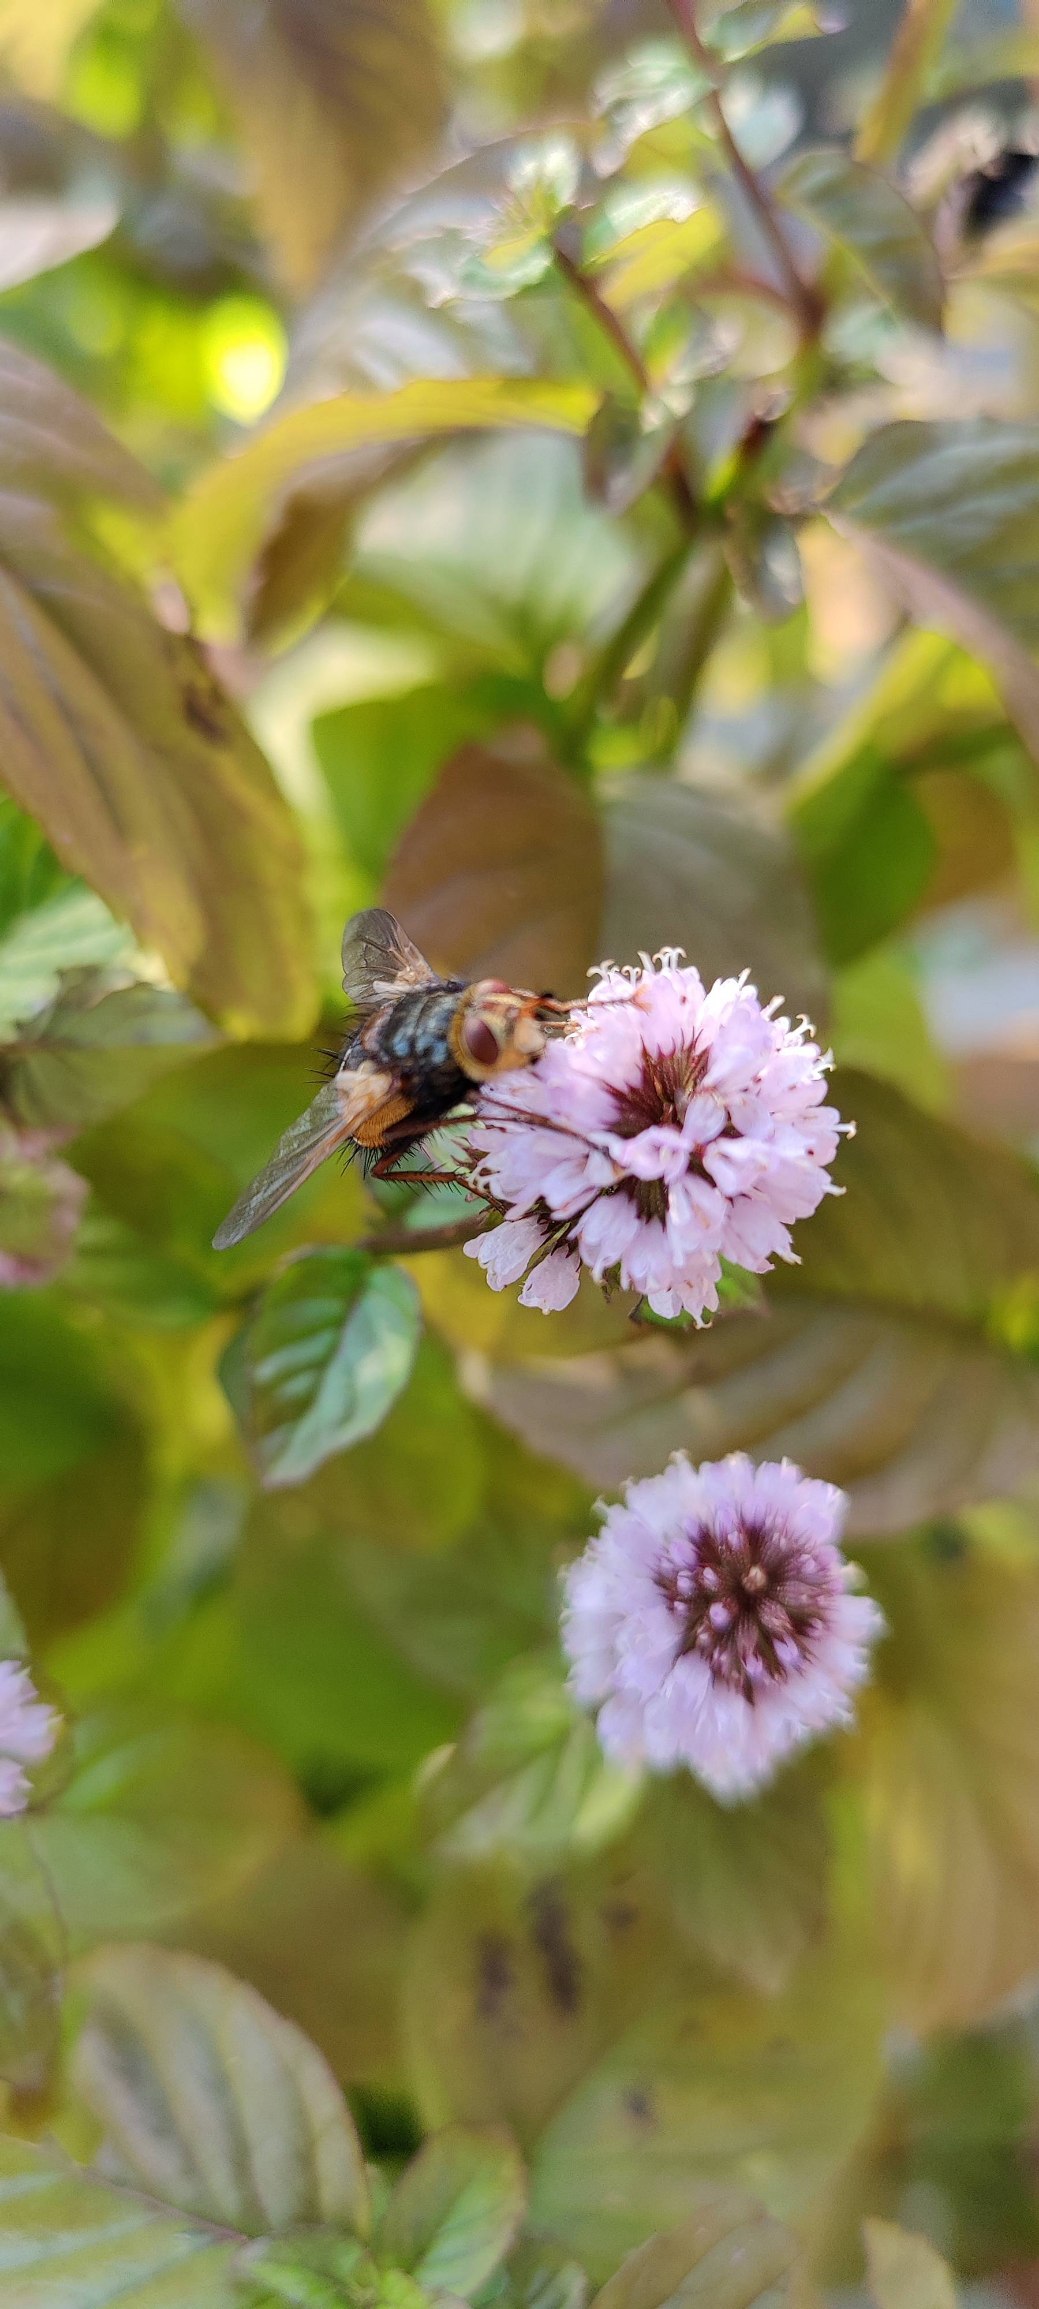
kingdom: Animalia
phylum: Arthropoda
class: Insecta
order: Diptera
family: Tachinidae
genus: Tachina
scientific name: Tachina fera
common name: Mellemfluen oskar
